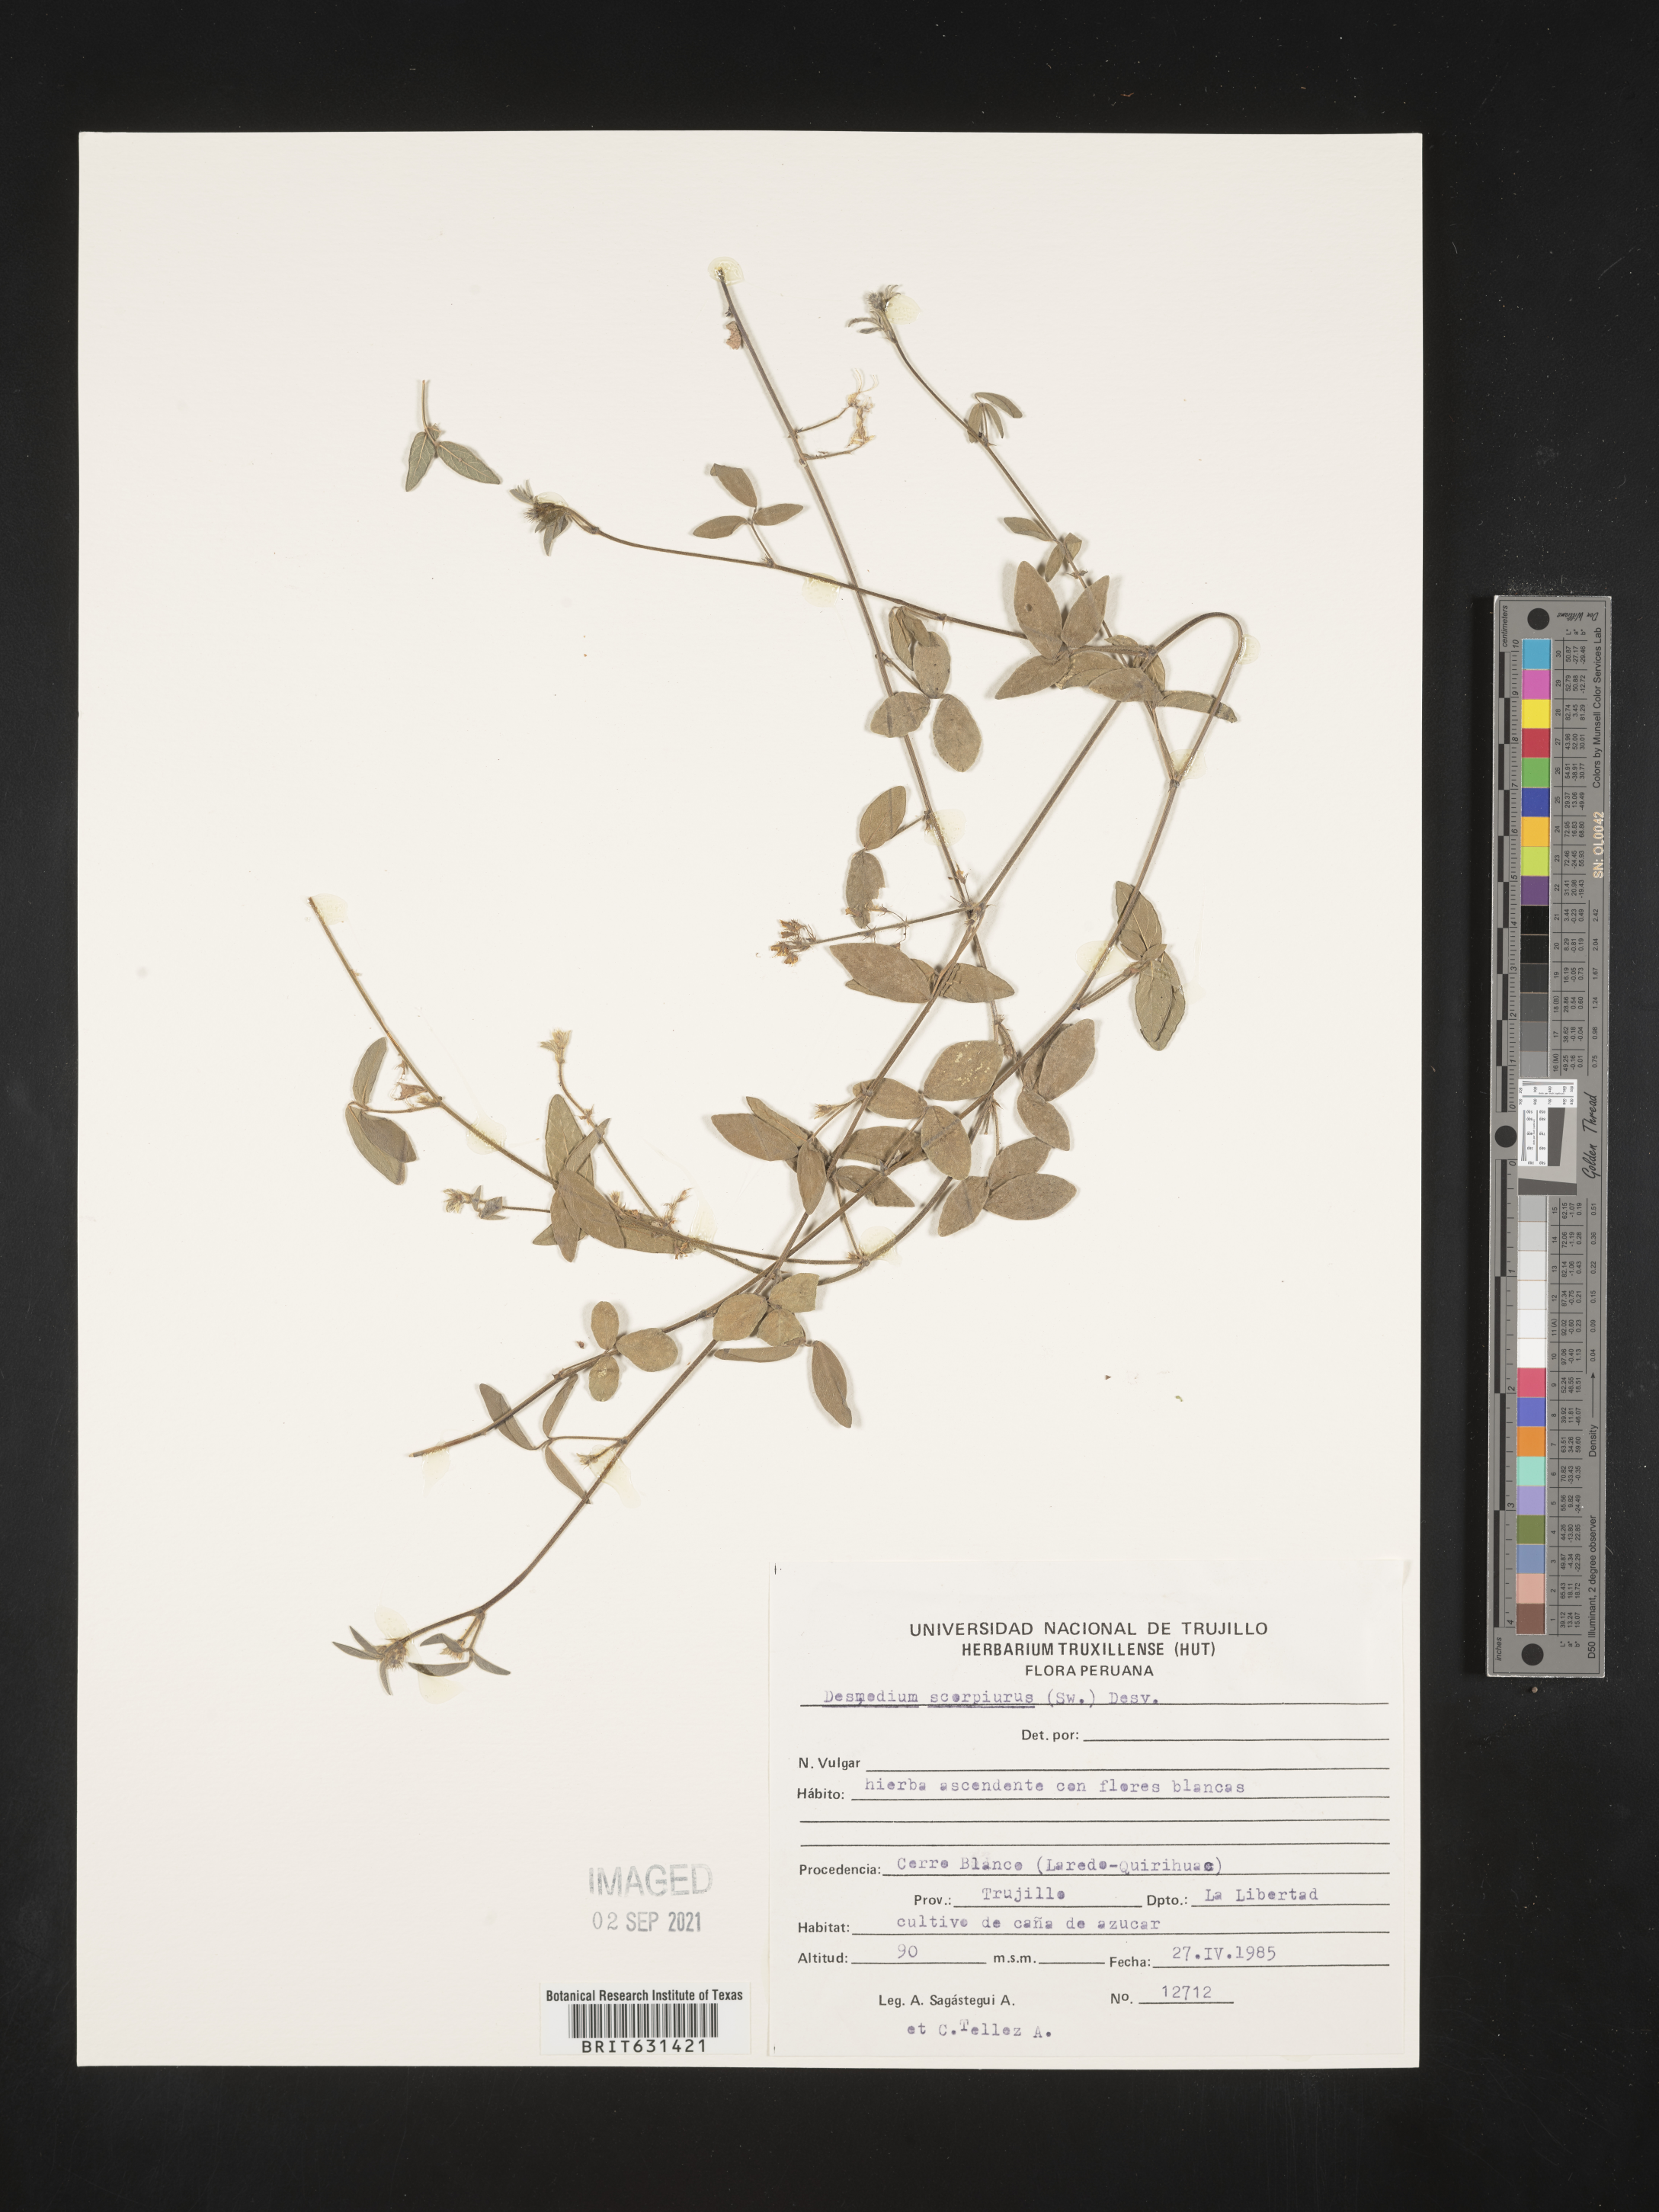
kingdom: Plantae
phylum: Tracheophyta
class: Magnoliopsida
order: Fabales
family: Fabaceae
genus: Desmodium
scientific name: Desmodium scorpiurus
